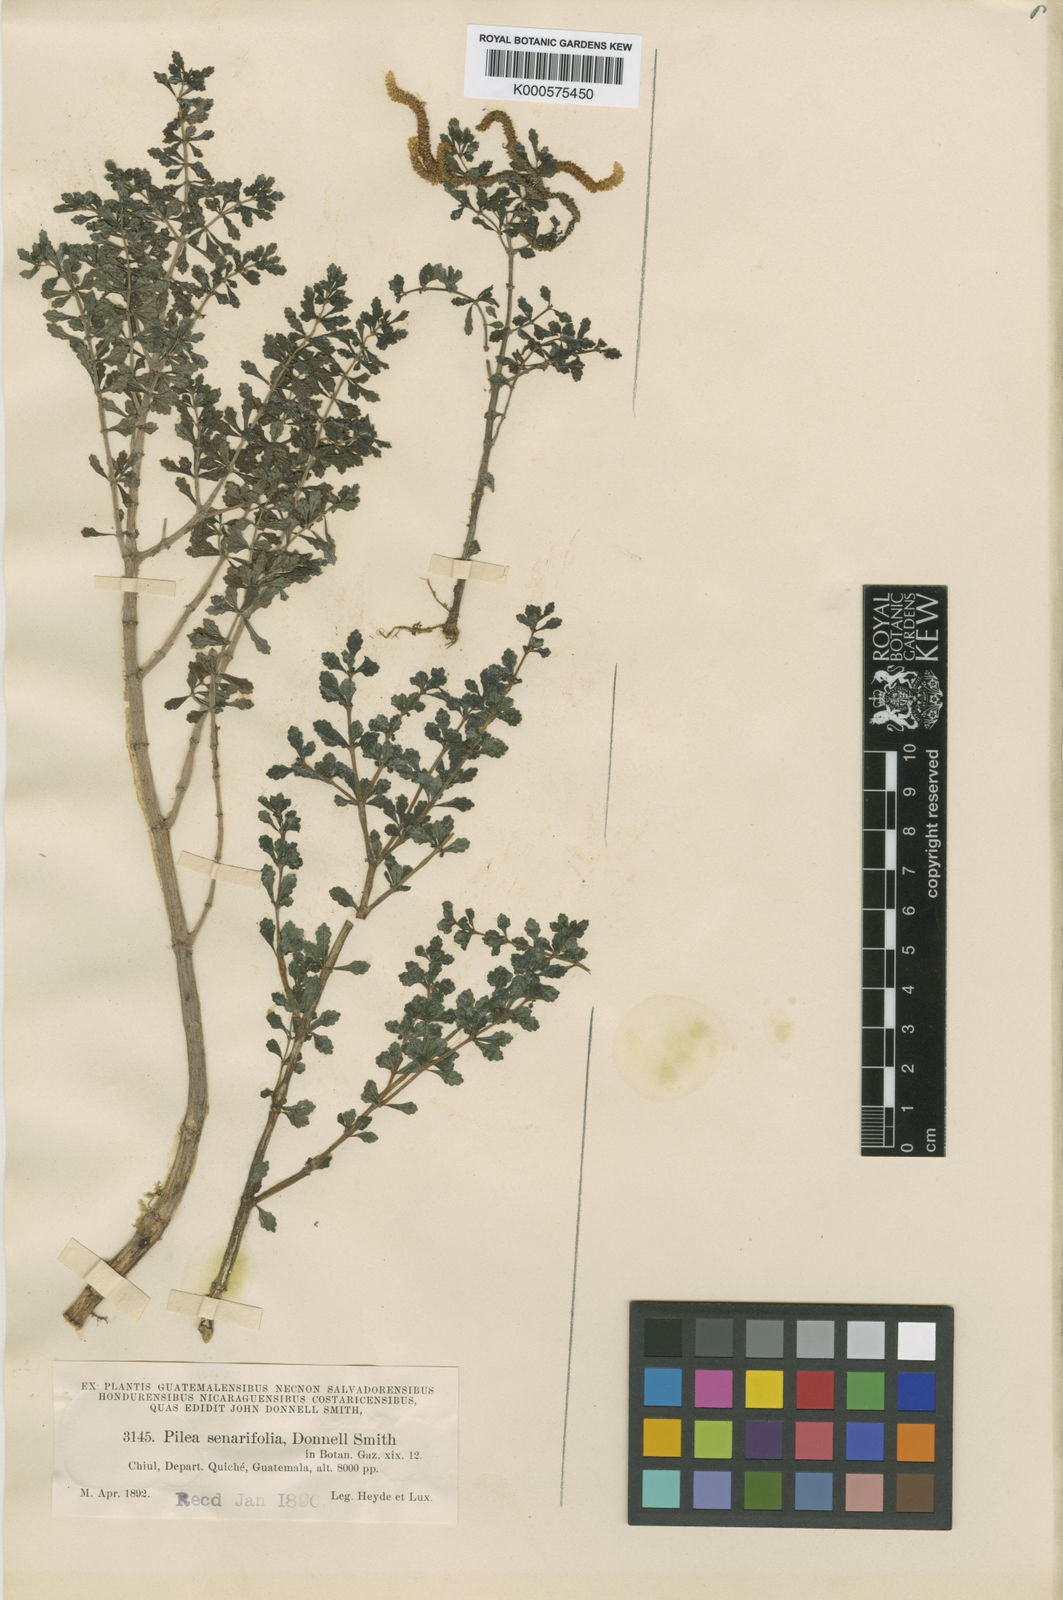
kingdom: Plantae
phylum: Tracheophyta
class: Magnoliopsida
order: Rosales
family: Urticaceae
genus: Pilea
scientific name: Pilea senarifolia
